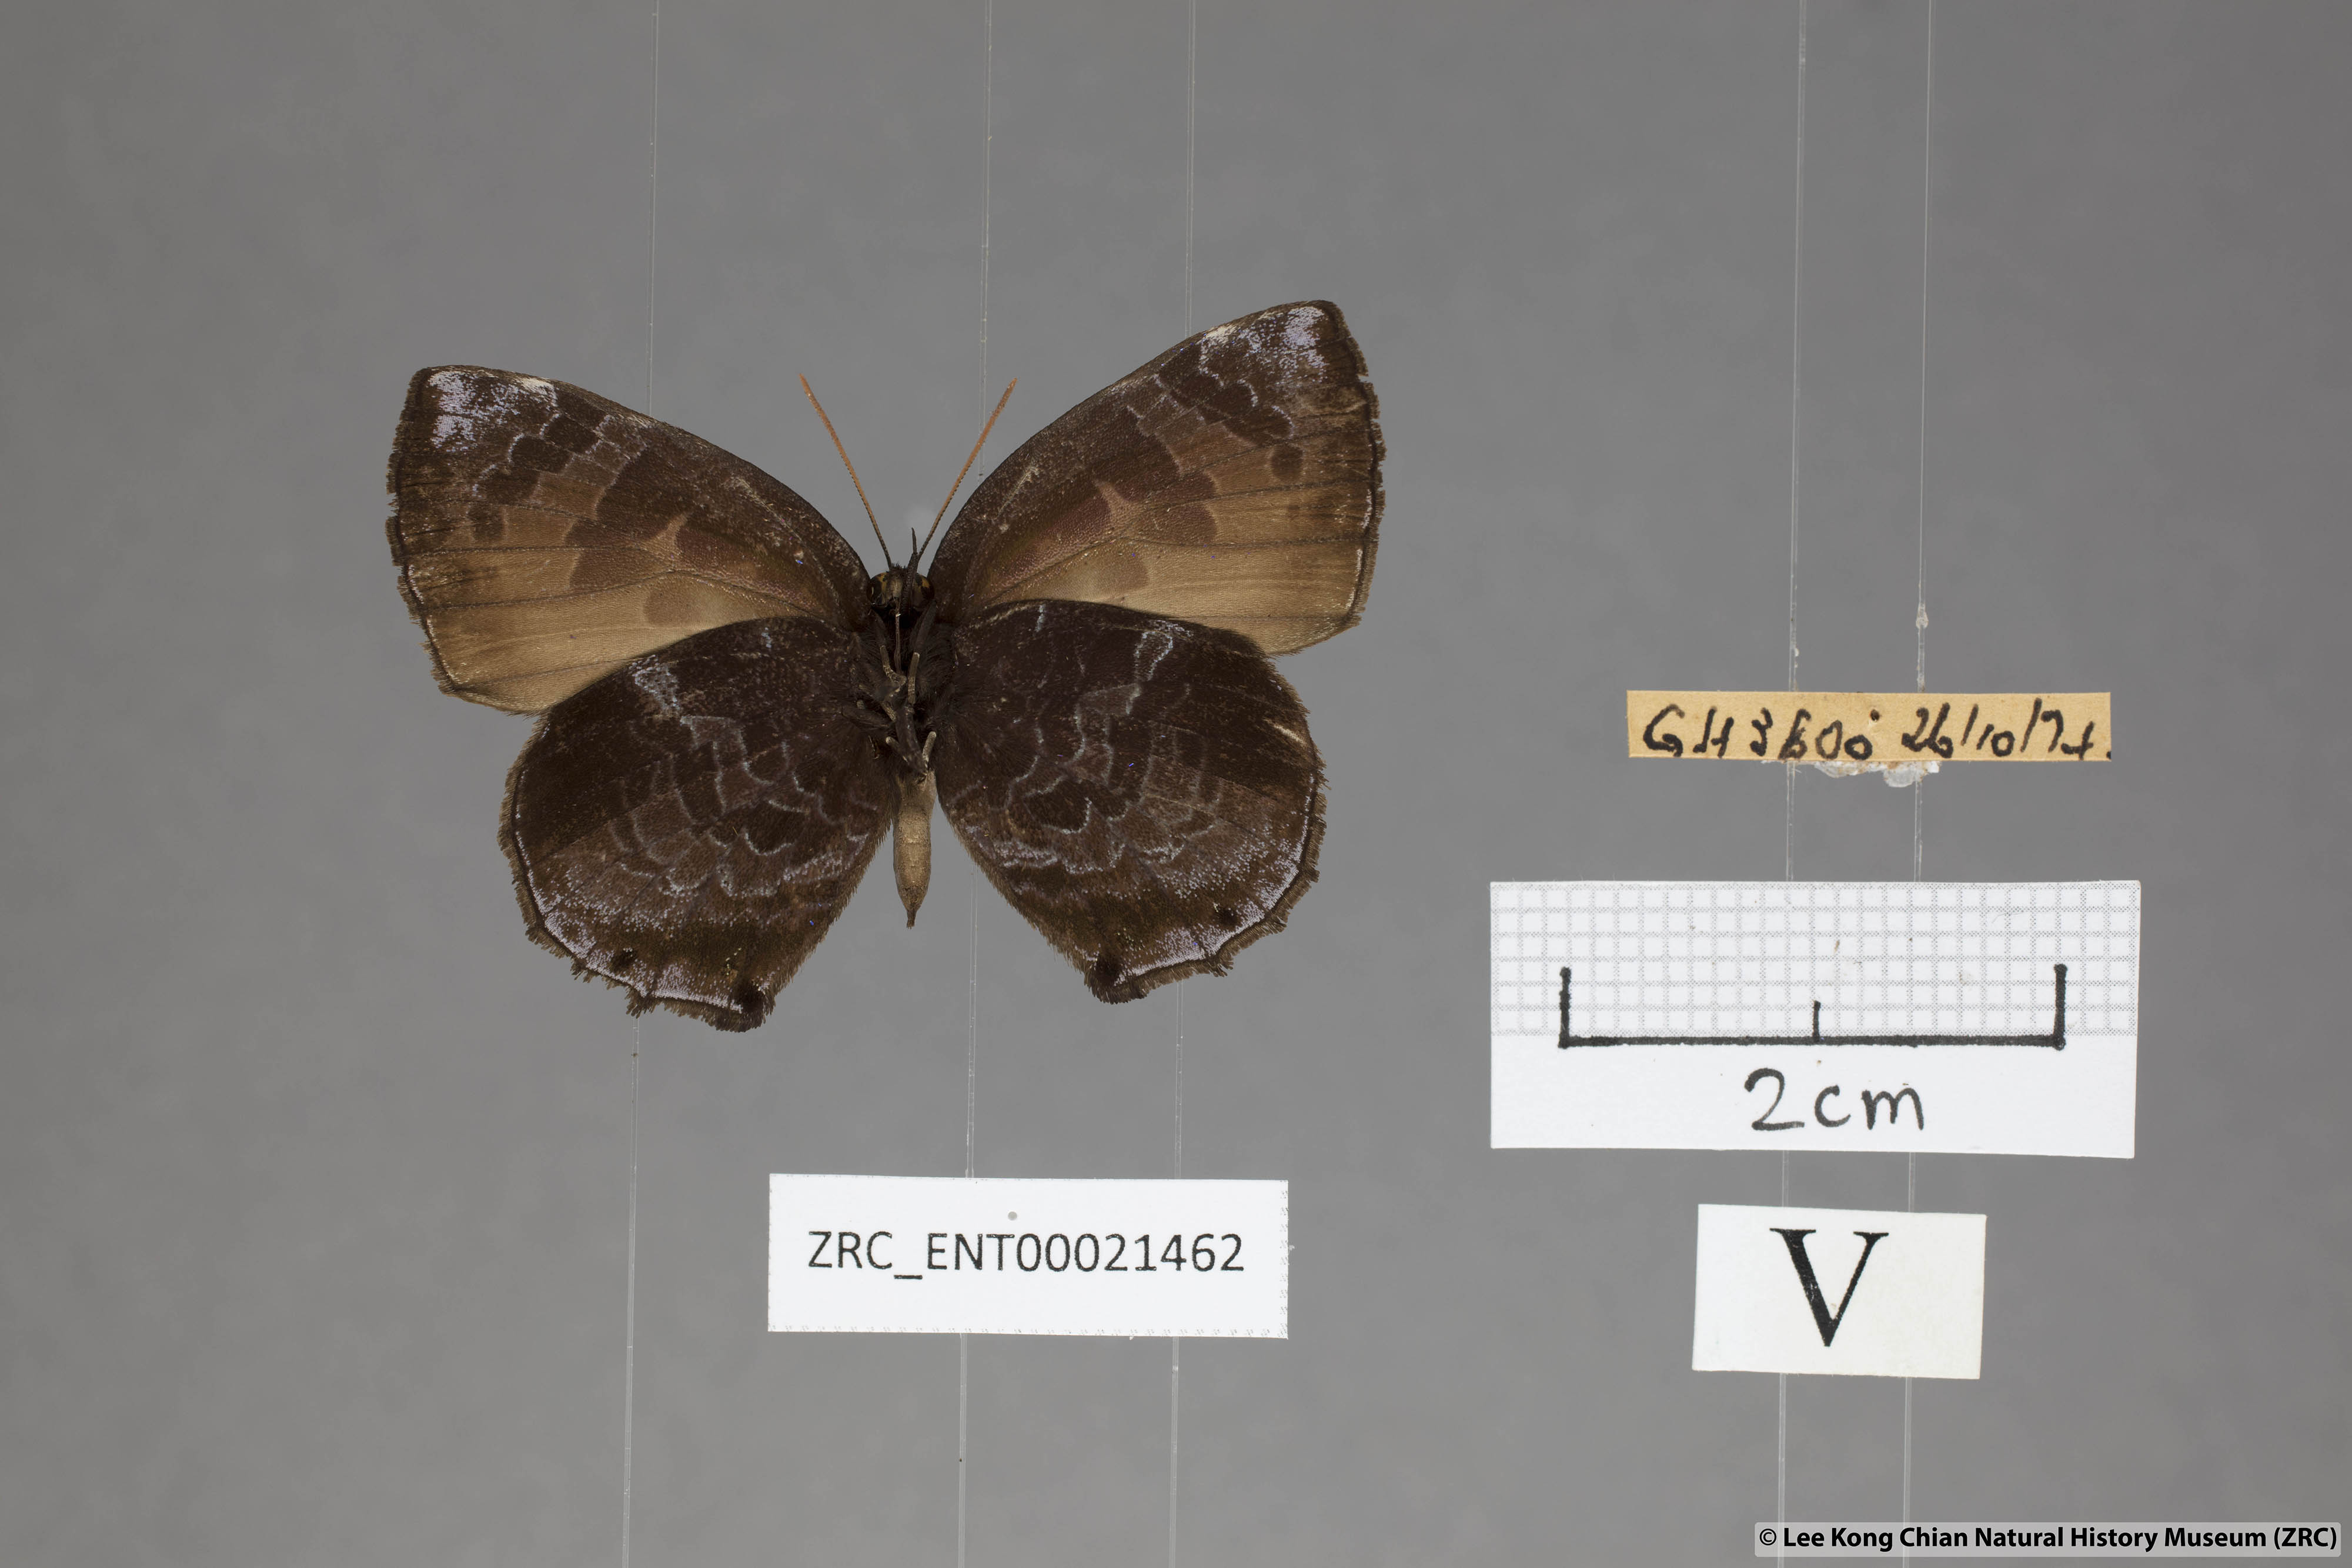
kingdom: Animalia
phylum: Arthropoda
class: Insecta
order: Lepidoptera
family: Lycaenidae
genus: Flos
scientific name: Flos
